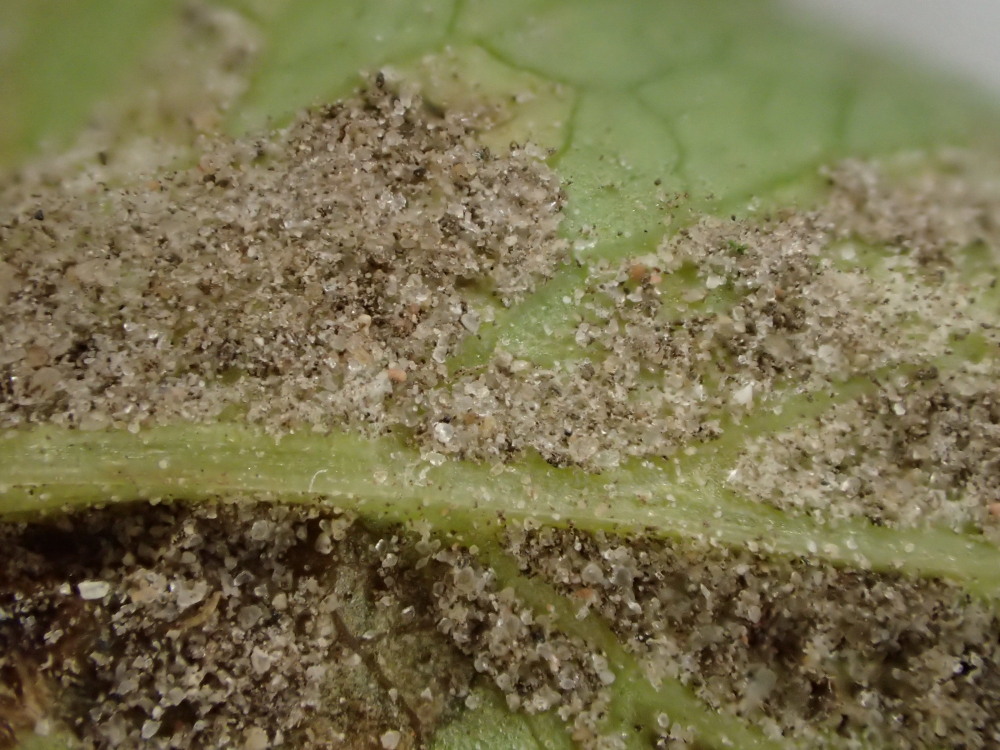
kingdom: Chromista
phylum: Oomycota
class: Peronosporea
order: Peronosporales
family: Peronosporaceae
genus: Peronospora
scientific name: Peronospora crustosa
